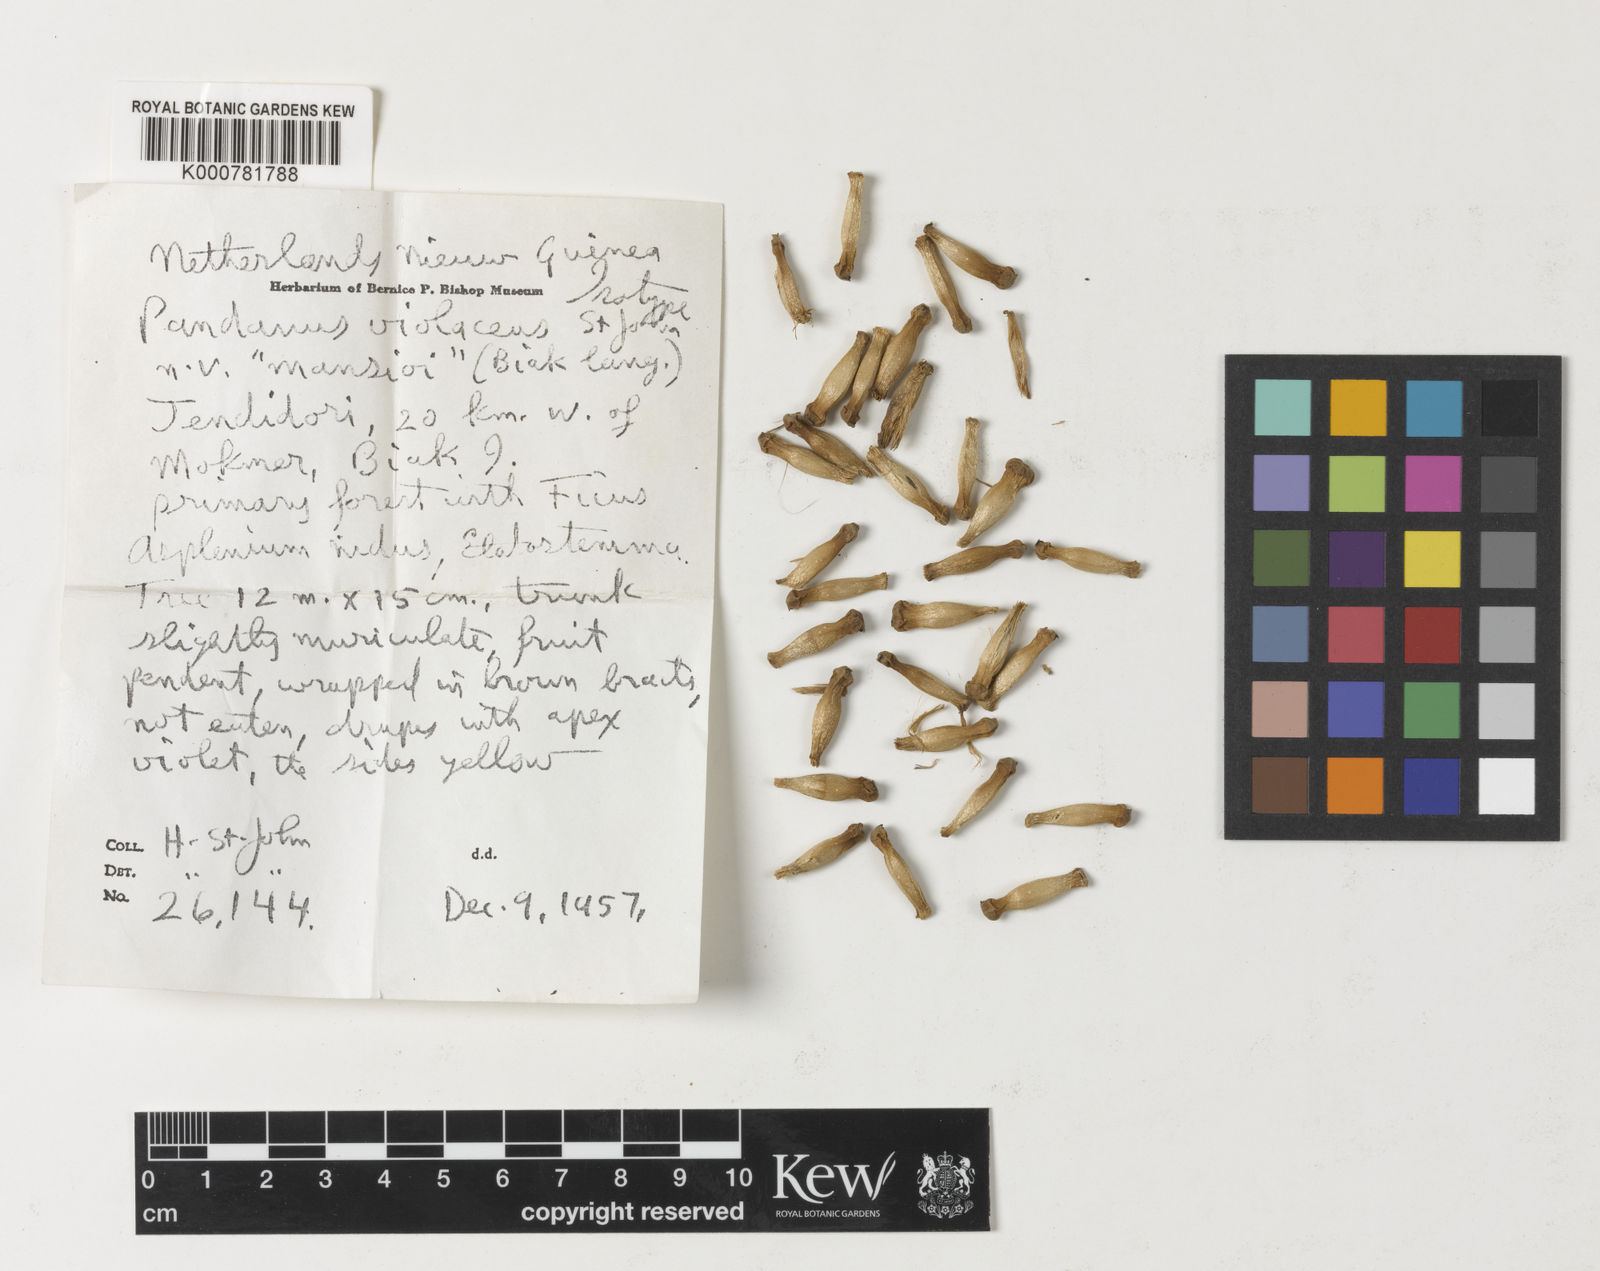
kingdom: Plantae
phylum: Tracheophyta
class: Liliopsida
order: Pandanales
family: Pandanaceae
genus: Pandanus
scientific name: Pandanus
